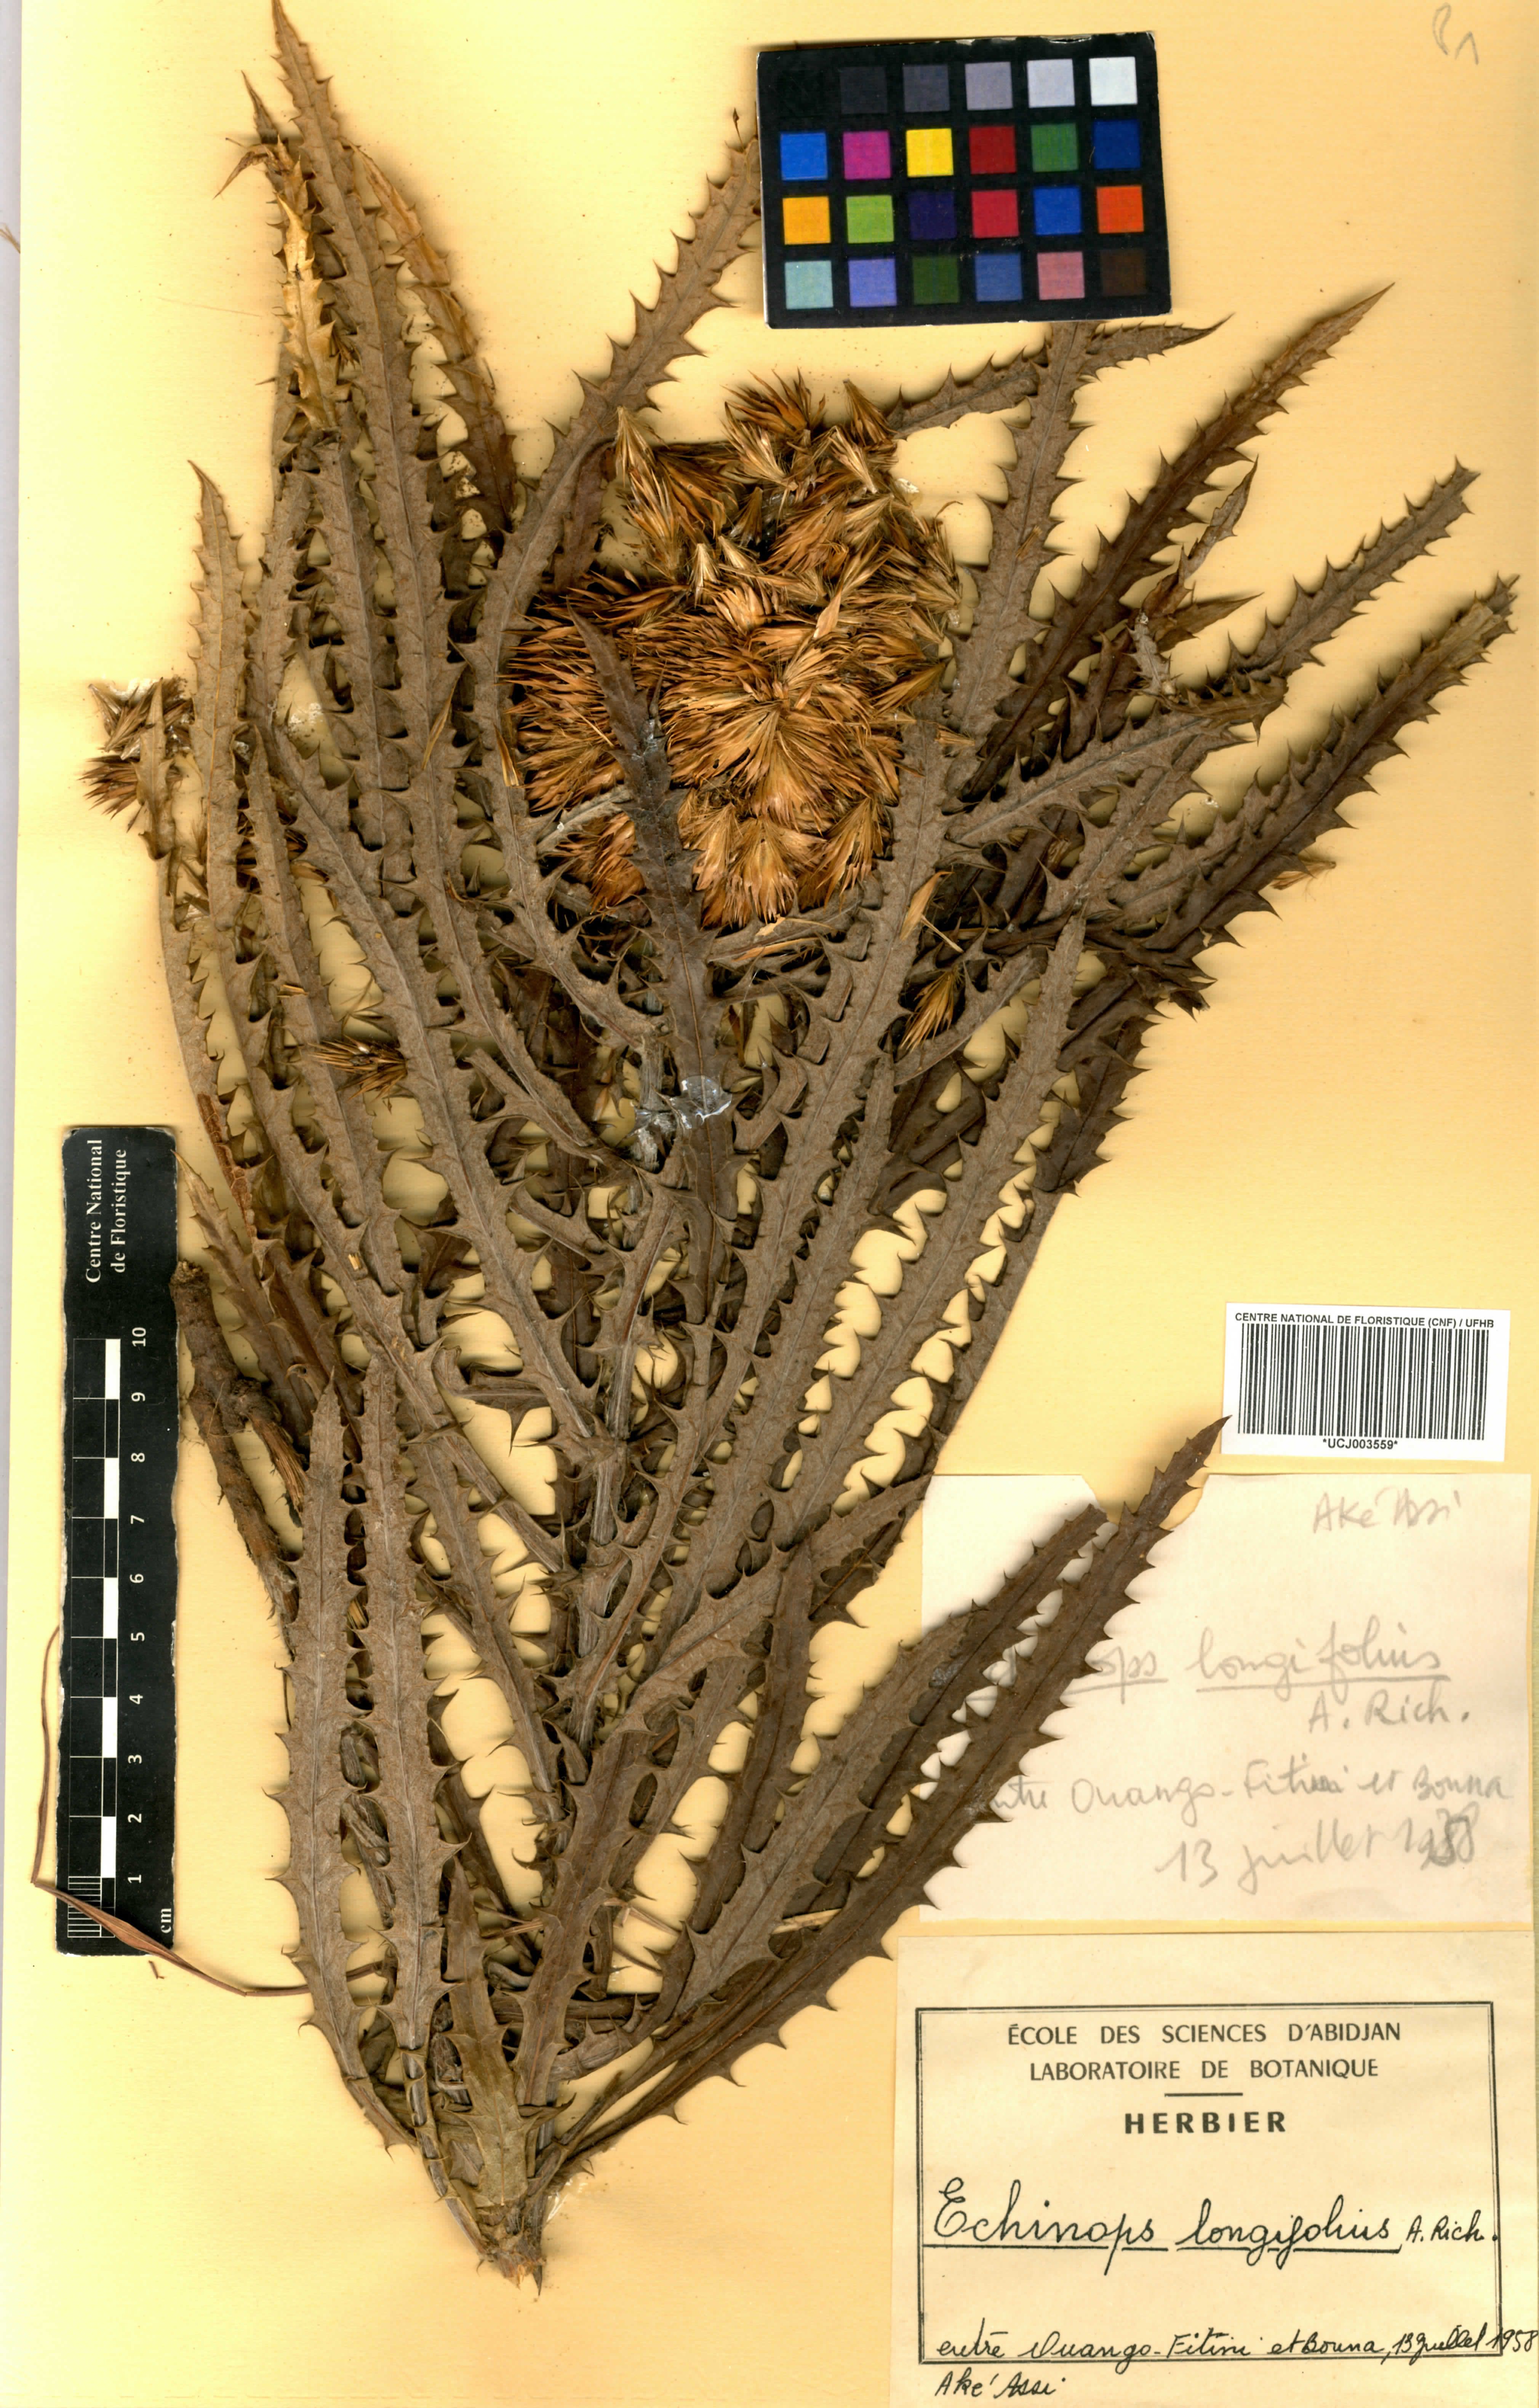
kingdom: Plantae
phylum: Tracheophyta
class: Magnoliopsida
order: Asterales
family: Asteraceae
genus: Echinops
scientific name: Echinops longifolius
